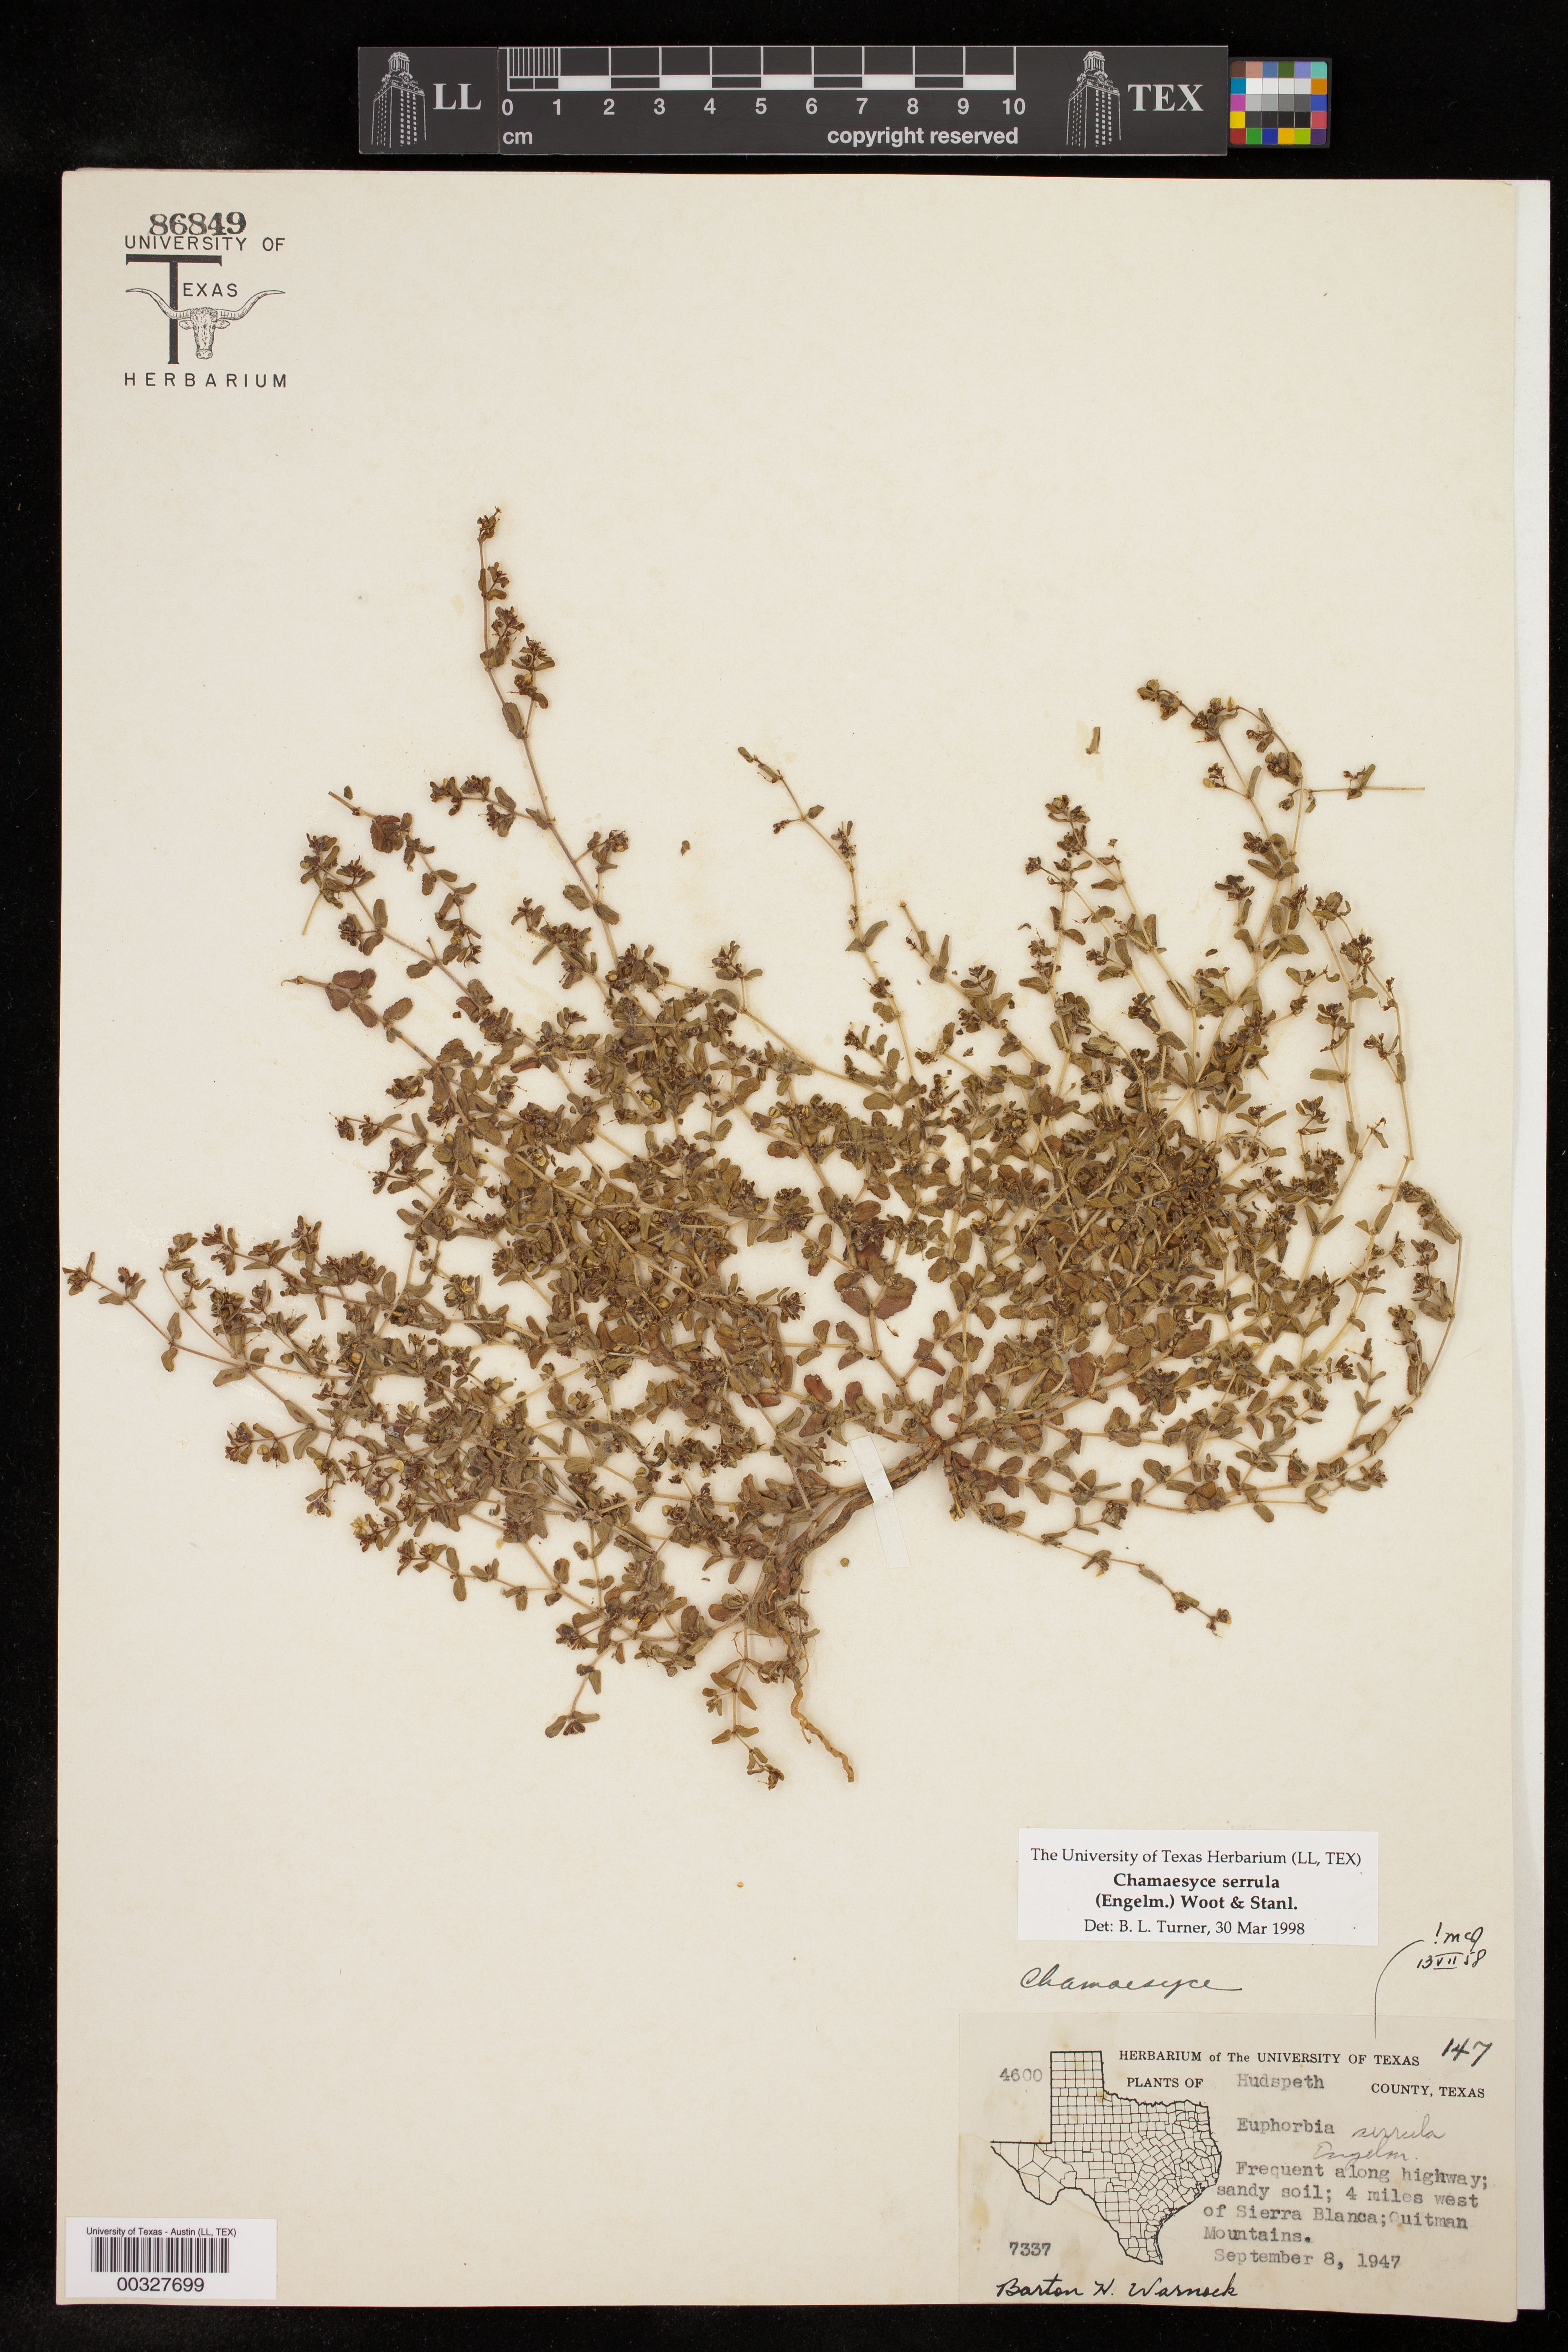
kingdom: Plantae
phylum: Tracheophyta
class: Magnoliopsida
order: Malpighiales
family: Euphorbiaceae
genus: Euphorbia
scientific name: Euphorbia serrula
